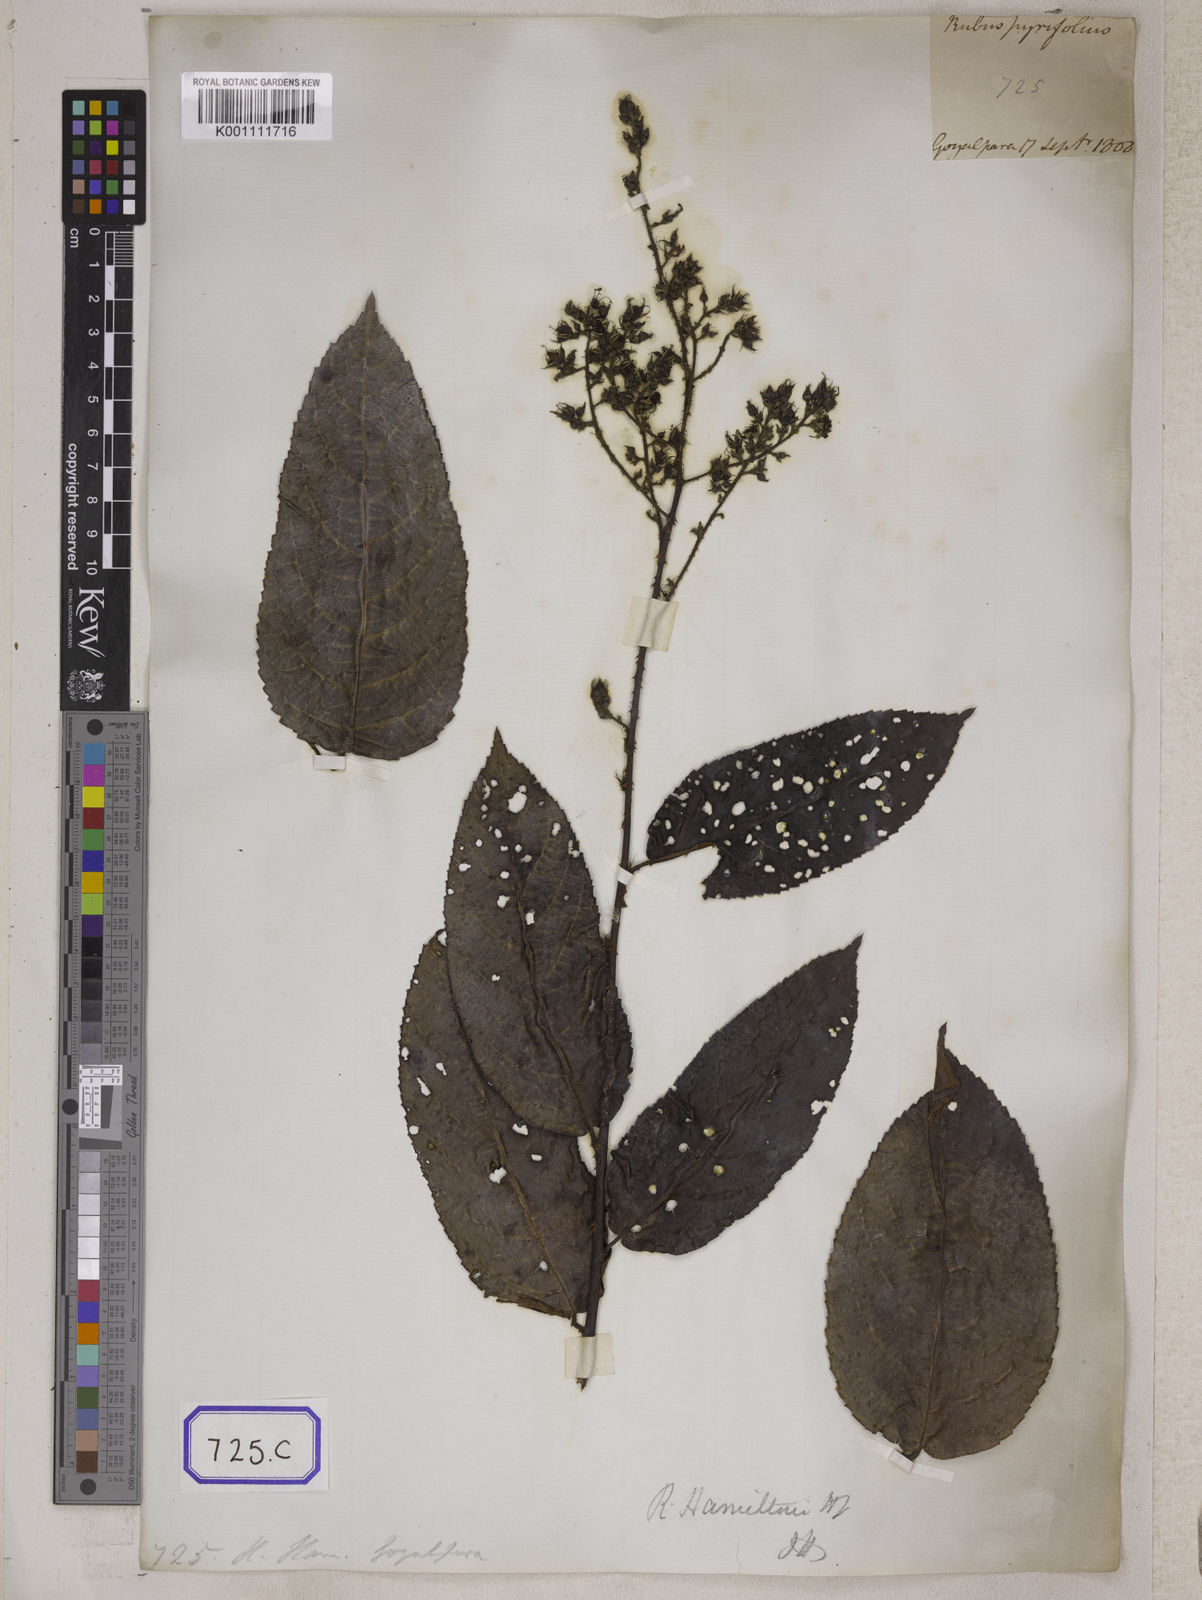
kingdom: Plantae
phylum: Tracheophyta
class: Magnoliopsida
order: Rosales
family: Rosaceae
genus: Rubus
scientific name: Rubus hexagynus
